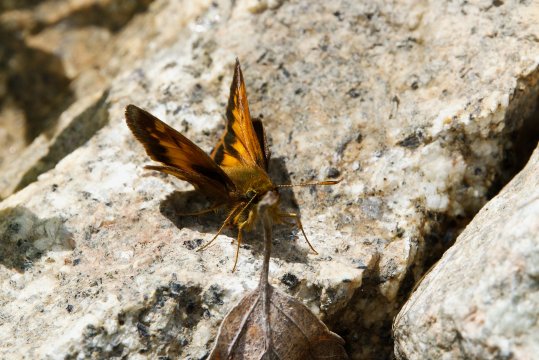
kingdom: Animalia
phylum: Arthropoda
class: Insecta
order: Lepidoptera
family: Hesperiidae
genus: Lon
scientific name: Lon hobomok
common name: Hobomok Skipper
